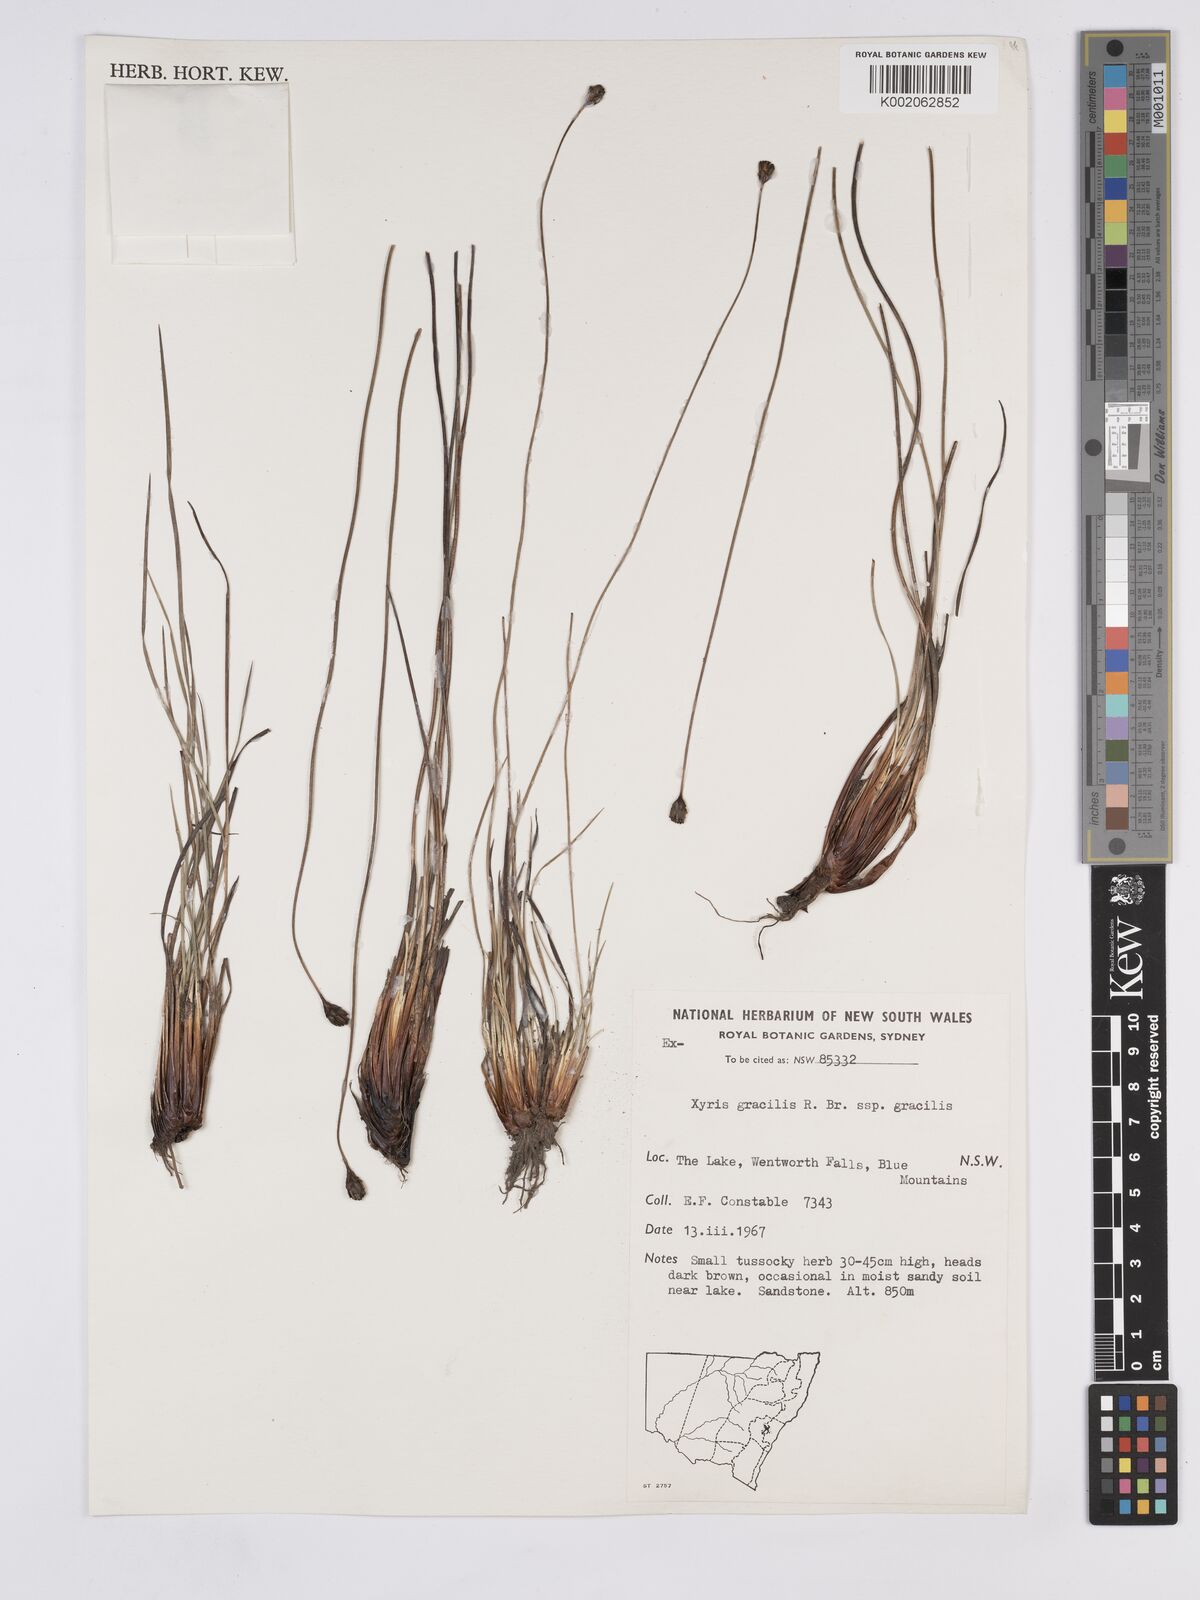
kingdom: Plantae
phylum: Tracheophyta
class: Liliopsida
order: Poales
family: Xyridaceae
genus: Xyris
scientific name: Xyris gracilis
